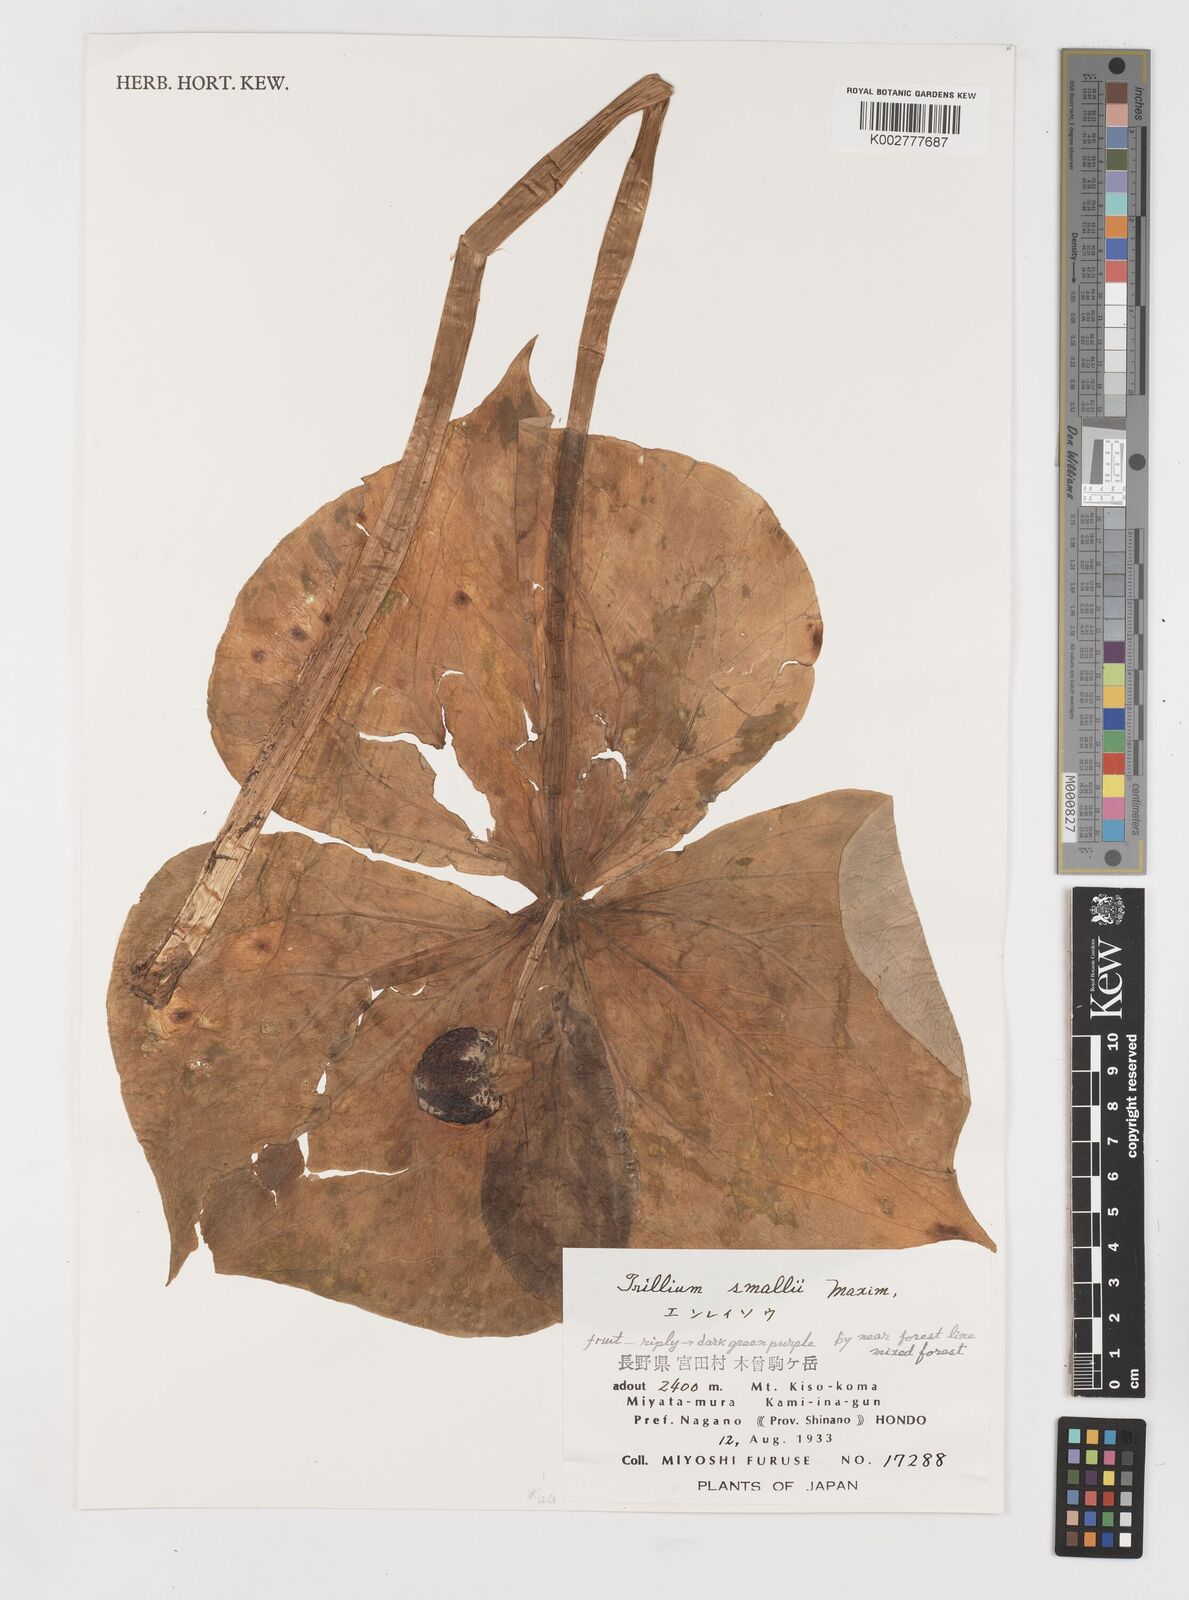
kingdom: Plantae
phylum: Tracheophyta
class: Liliopsida
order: Liliales
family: Melanthiaceae
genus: Trillium
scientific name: Trillium smallii
